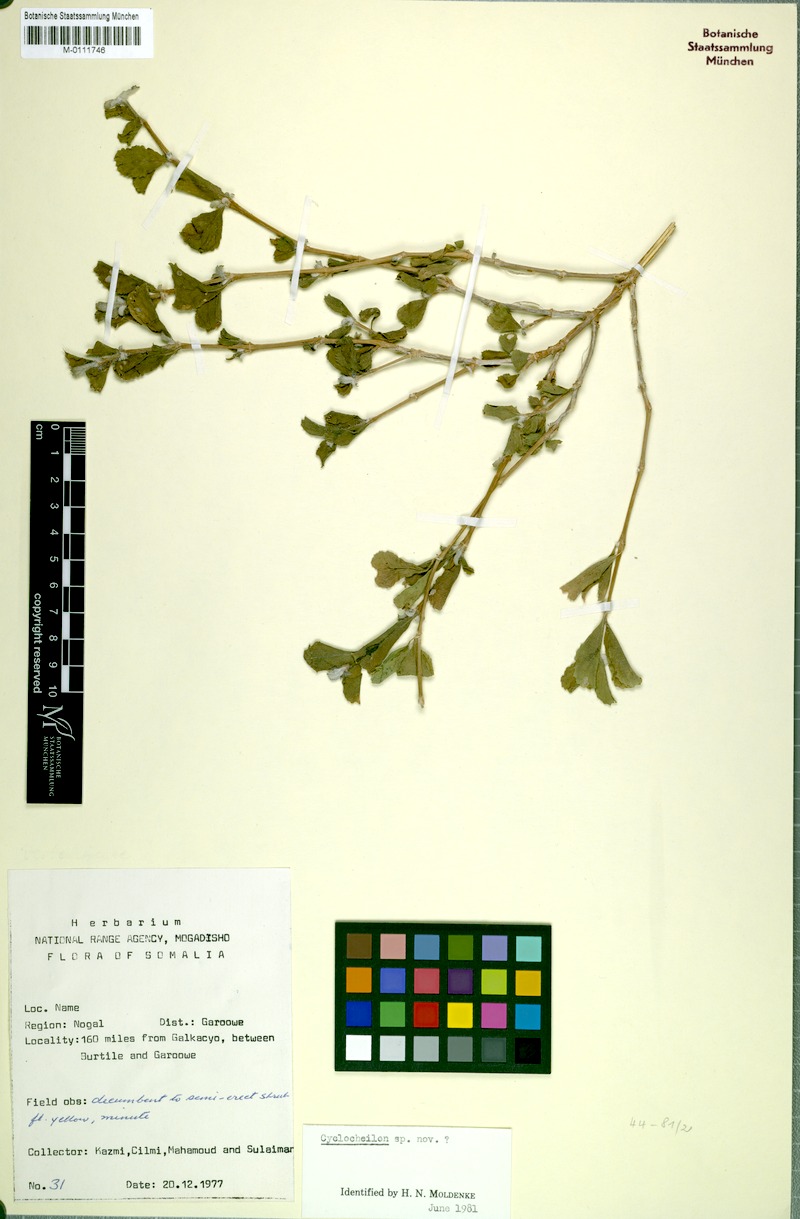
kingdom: Plantae
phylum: Tracheophyta
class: Magnoliopsida
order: Lamiales
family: Orobanchaceae
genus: Cyclocheilon
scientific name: Cyclocheilon
